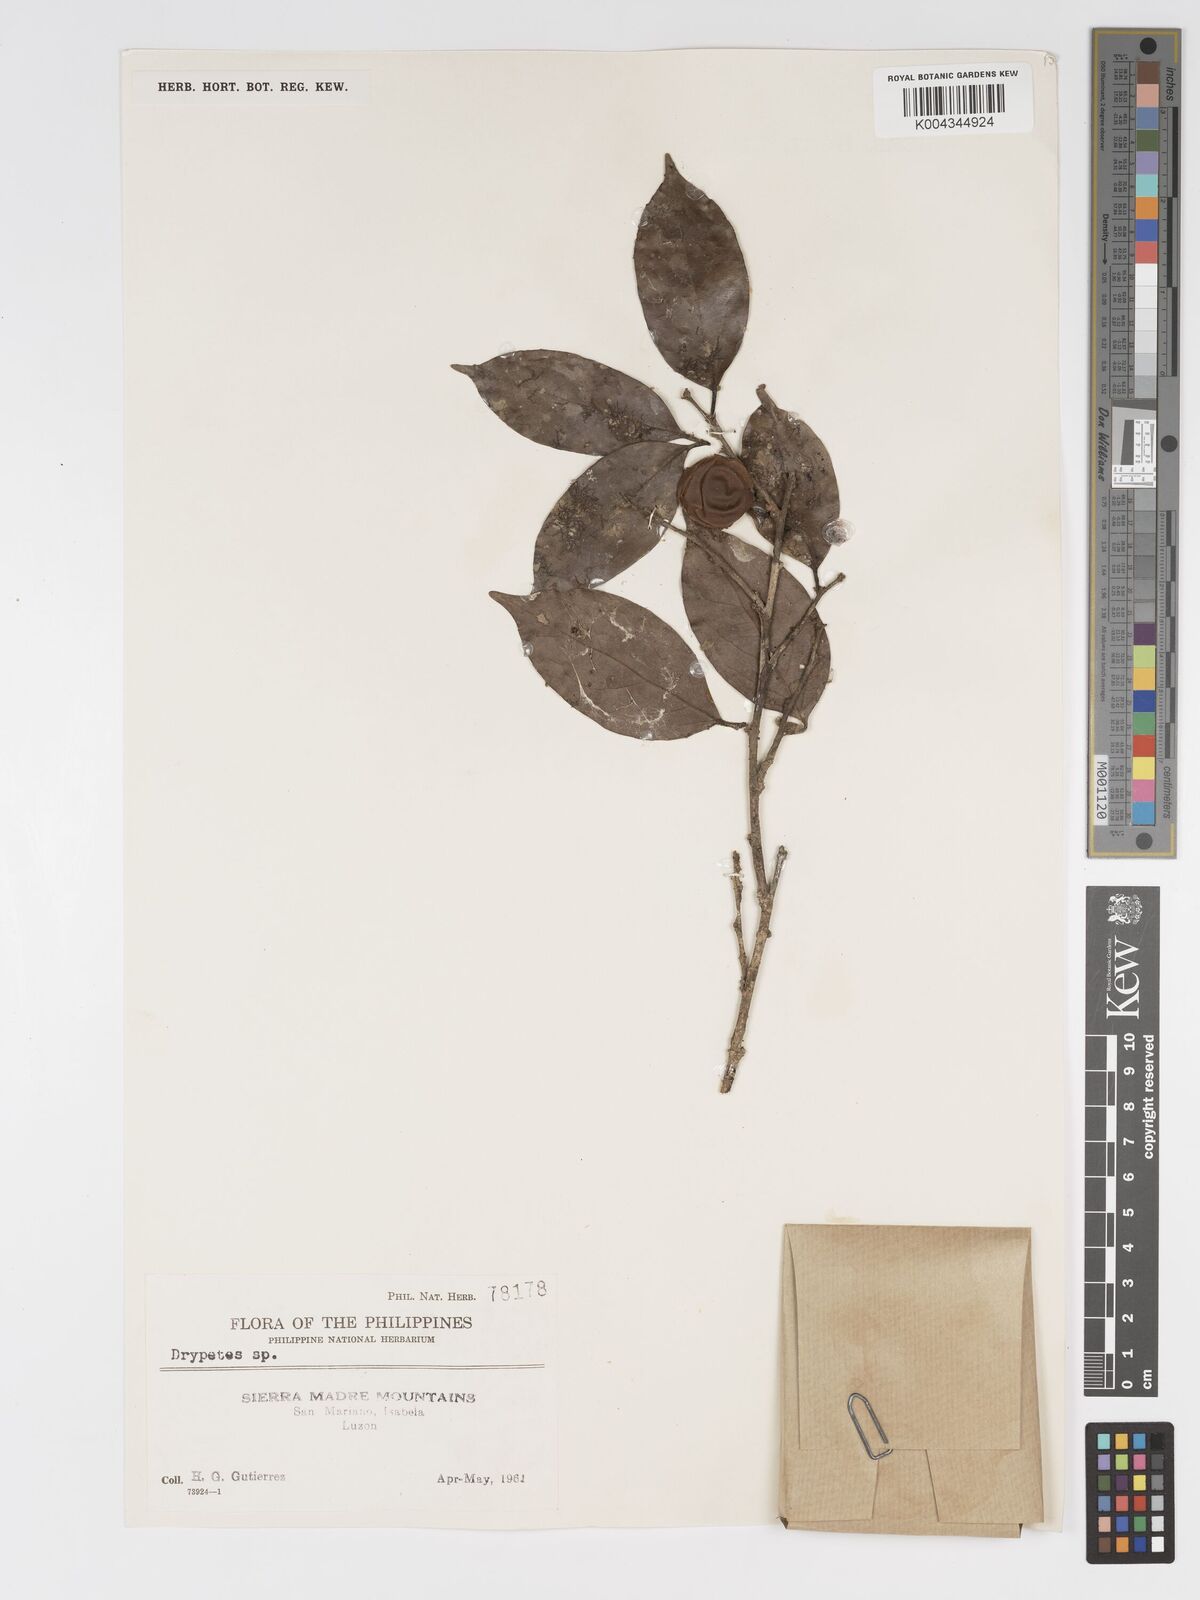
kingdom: Plantae
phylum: Tracheophyta
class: Magnoliopsida
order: Malpighiales
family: Putranjivaceae
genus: Drypetes
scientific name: Drypetes microphylla
